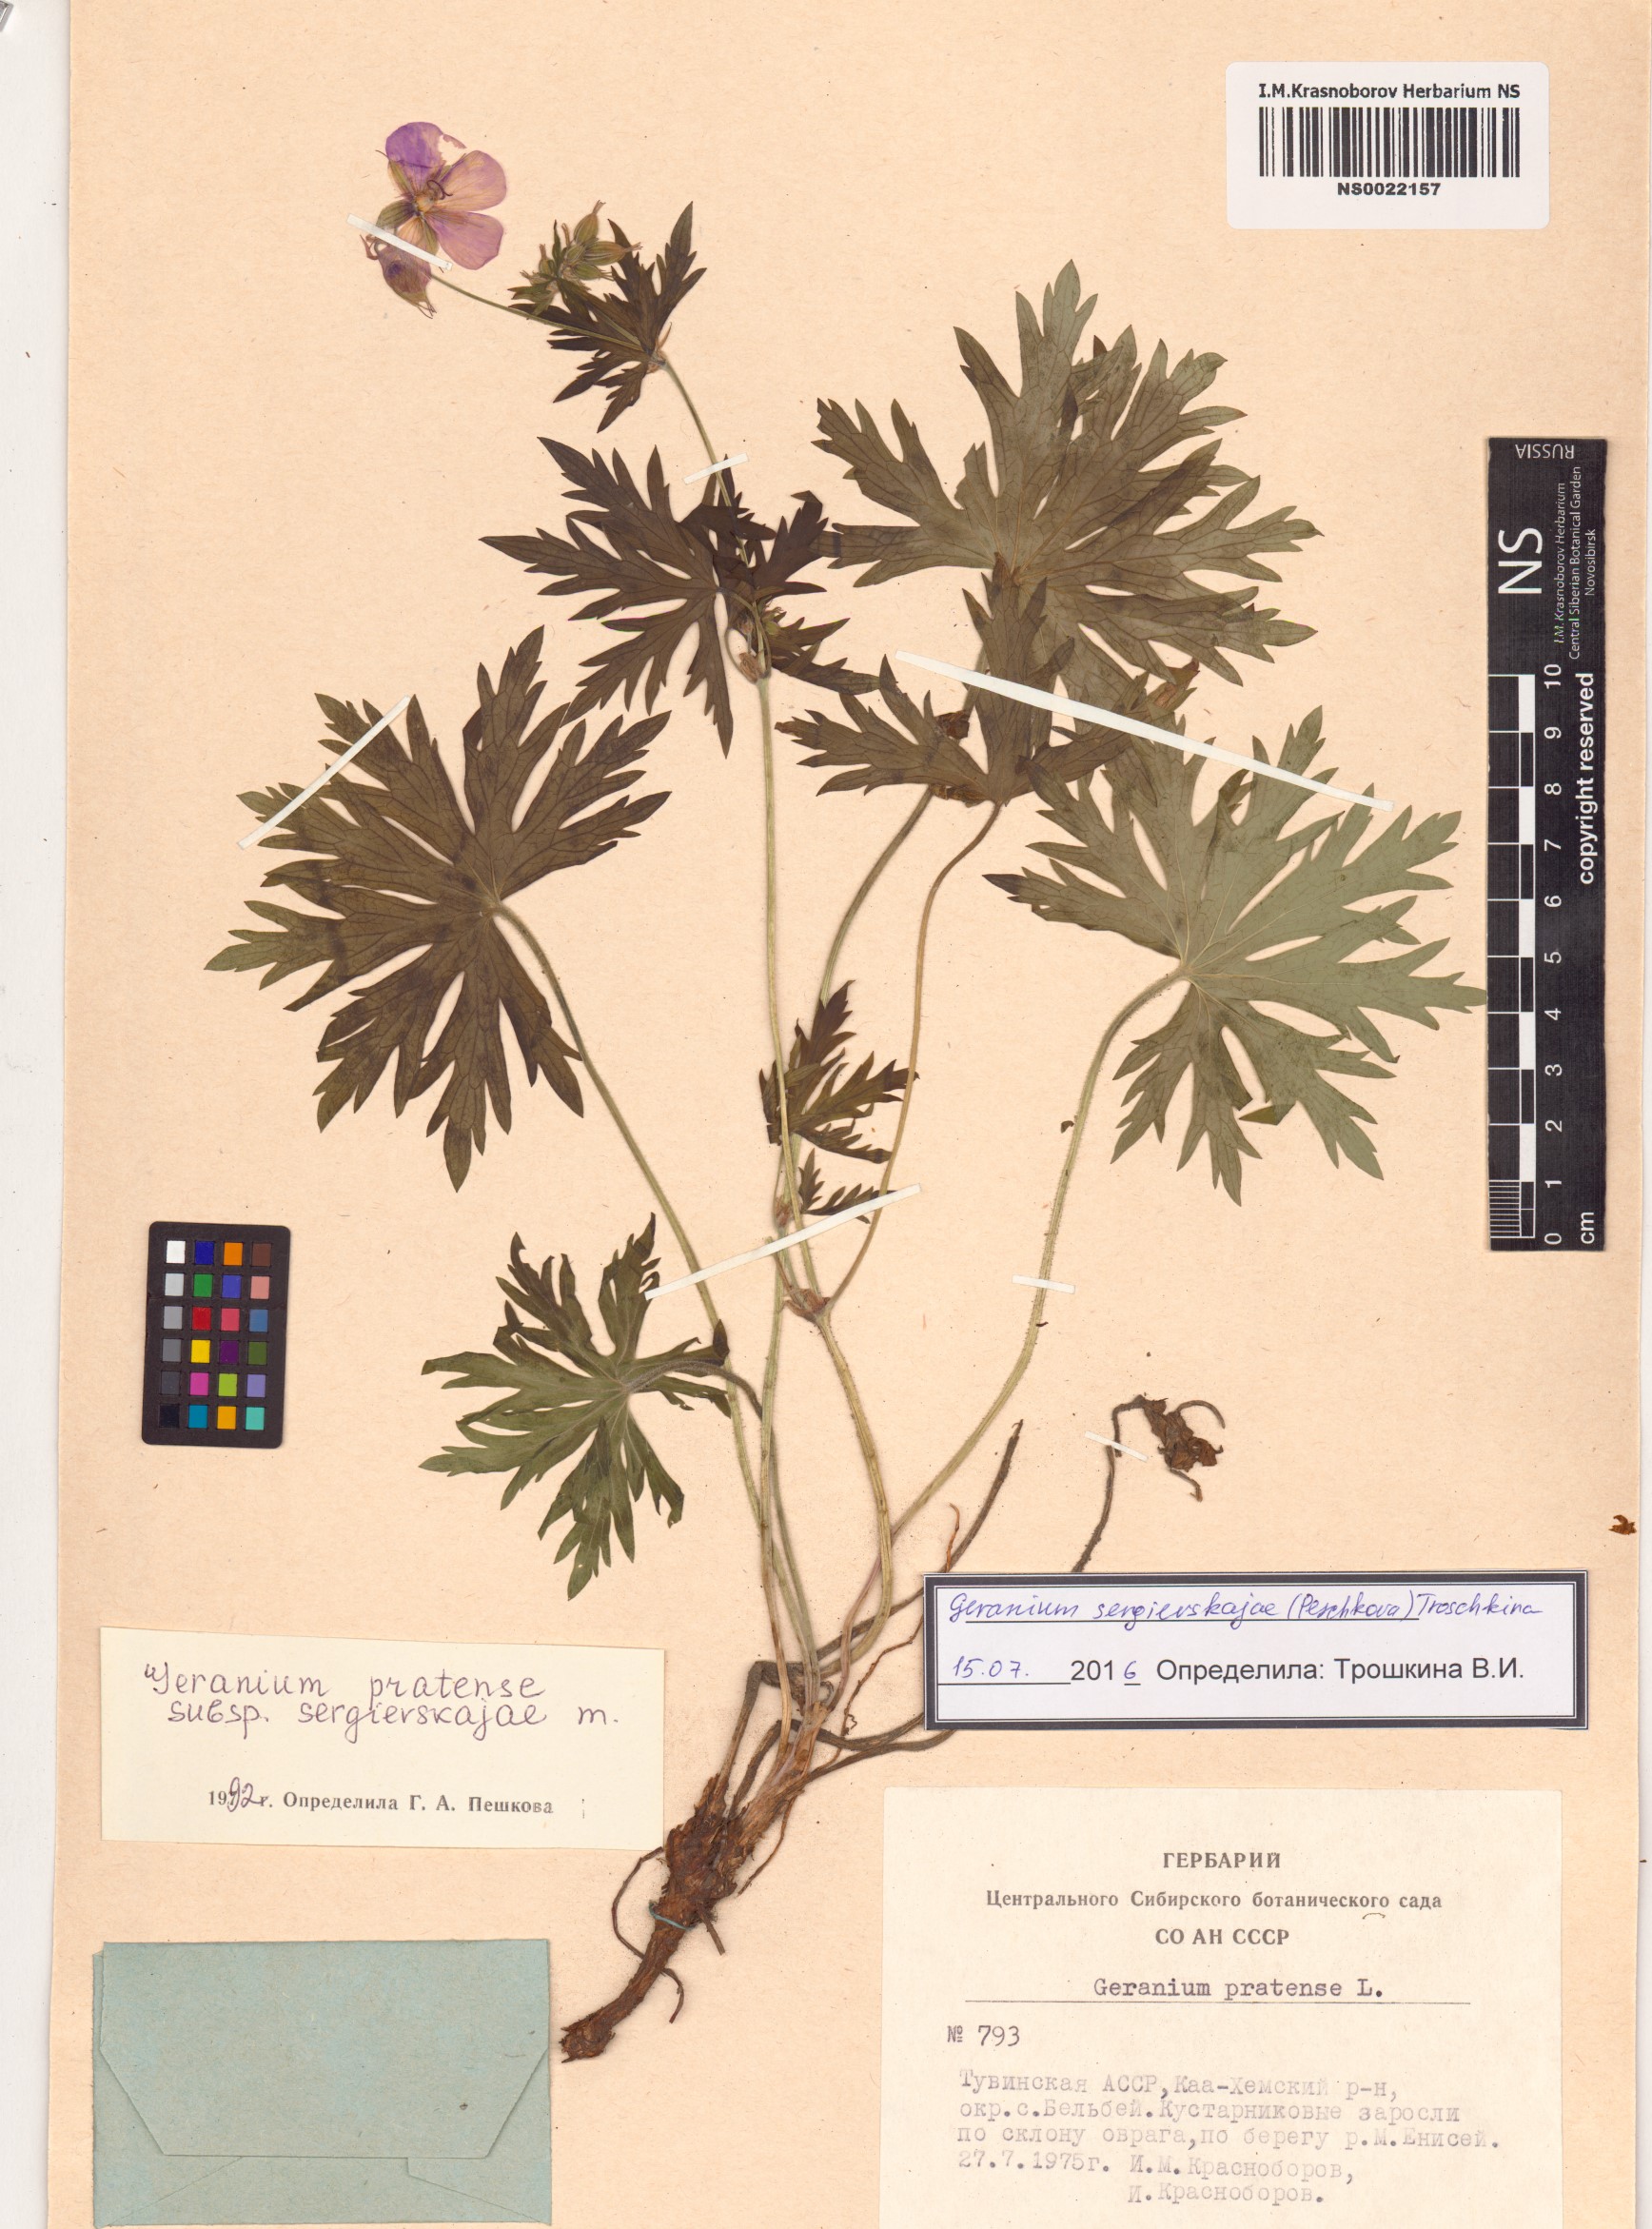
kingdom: Plantae
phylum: Tracheophyta
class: Magnoliopsida
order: Geraniales
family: Geraniaceae
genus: Geranium
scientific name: Geranium pratense
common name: Meadow crane's-bill
